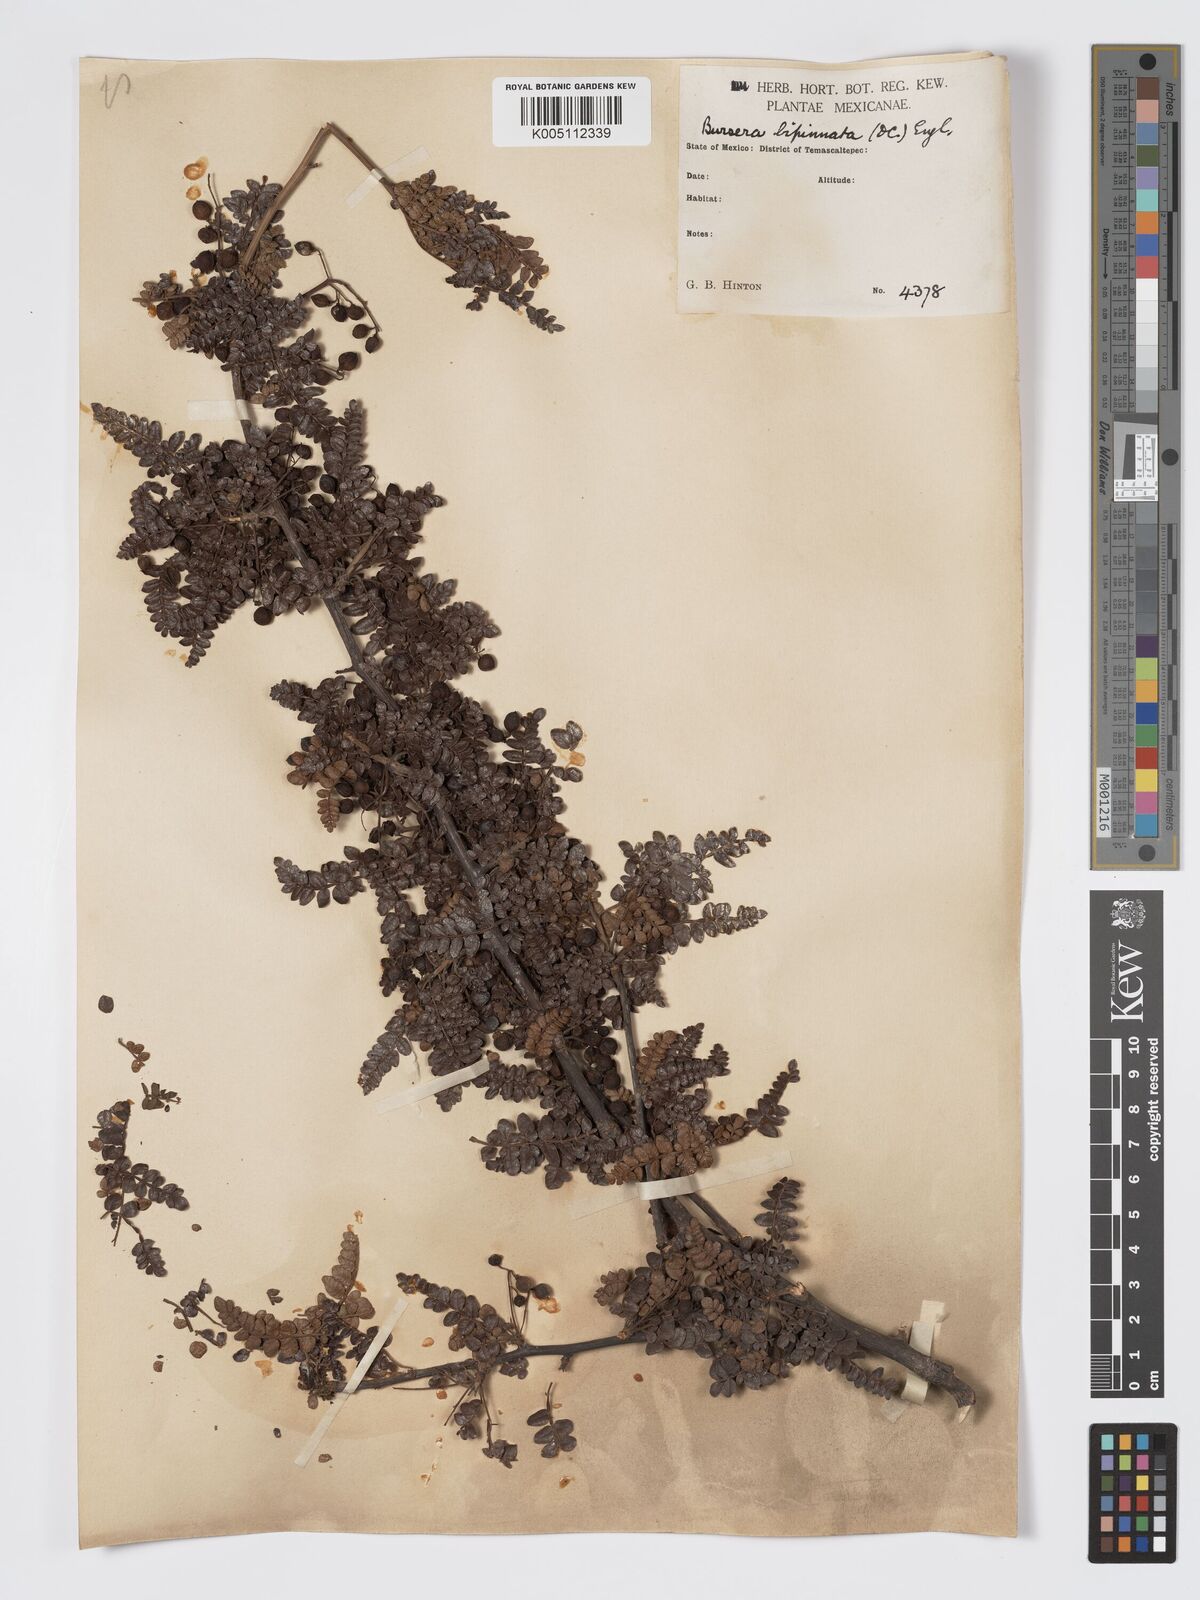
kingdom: Plantae
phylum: Tracheophyta
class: Magnoliopsida
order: Sapindales
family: Burseraceae
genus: Bursera
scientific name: Bursera bipinnata
